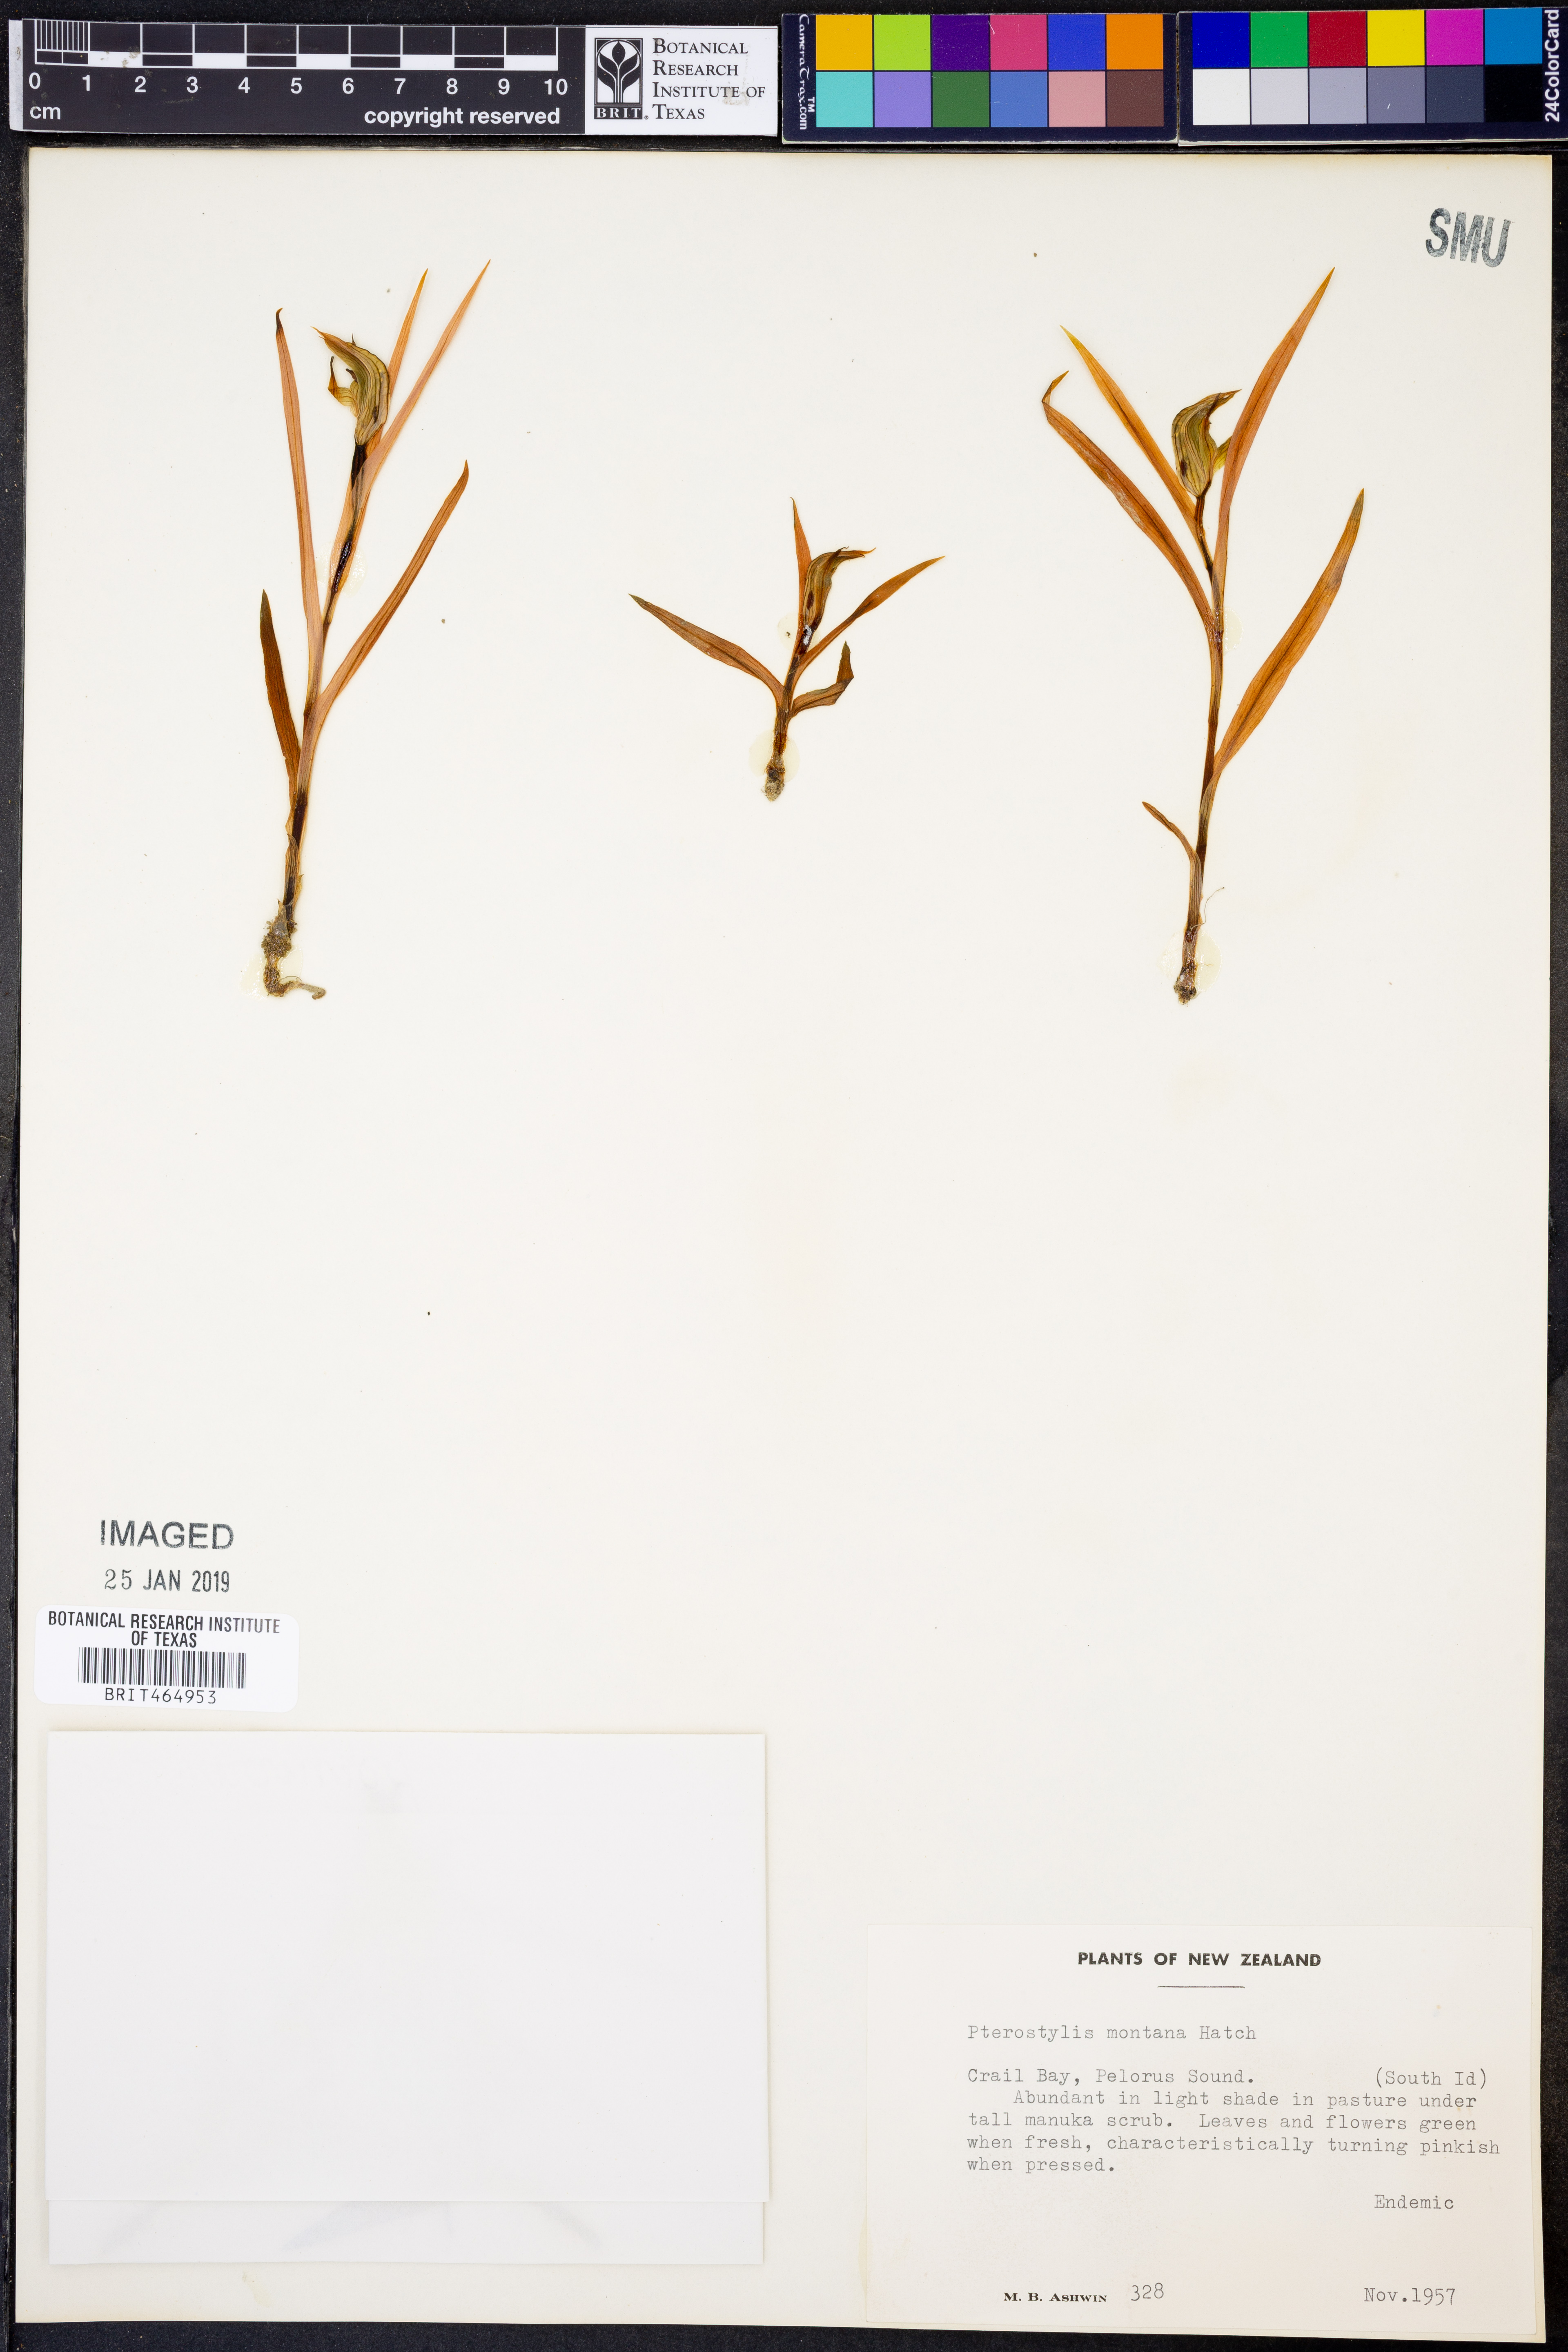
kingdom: Plantae
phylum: Tracheophyta
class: Liliopsida
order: Asparagales
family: Orchidaceae
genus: Pterostylis
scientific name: Pterostylis montana
